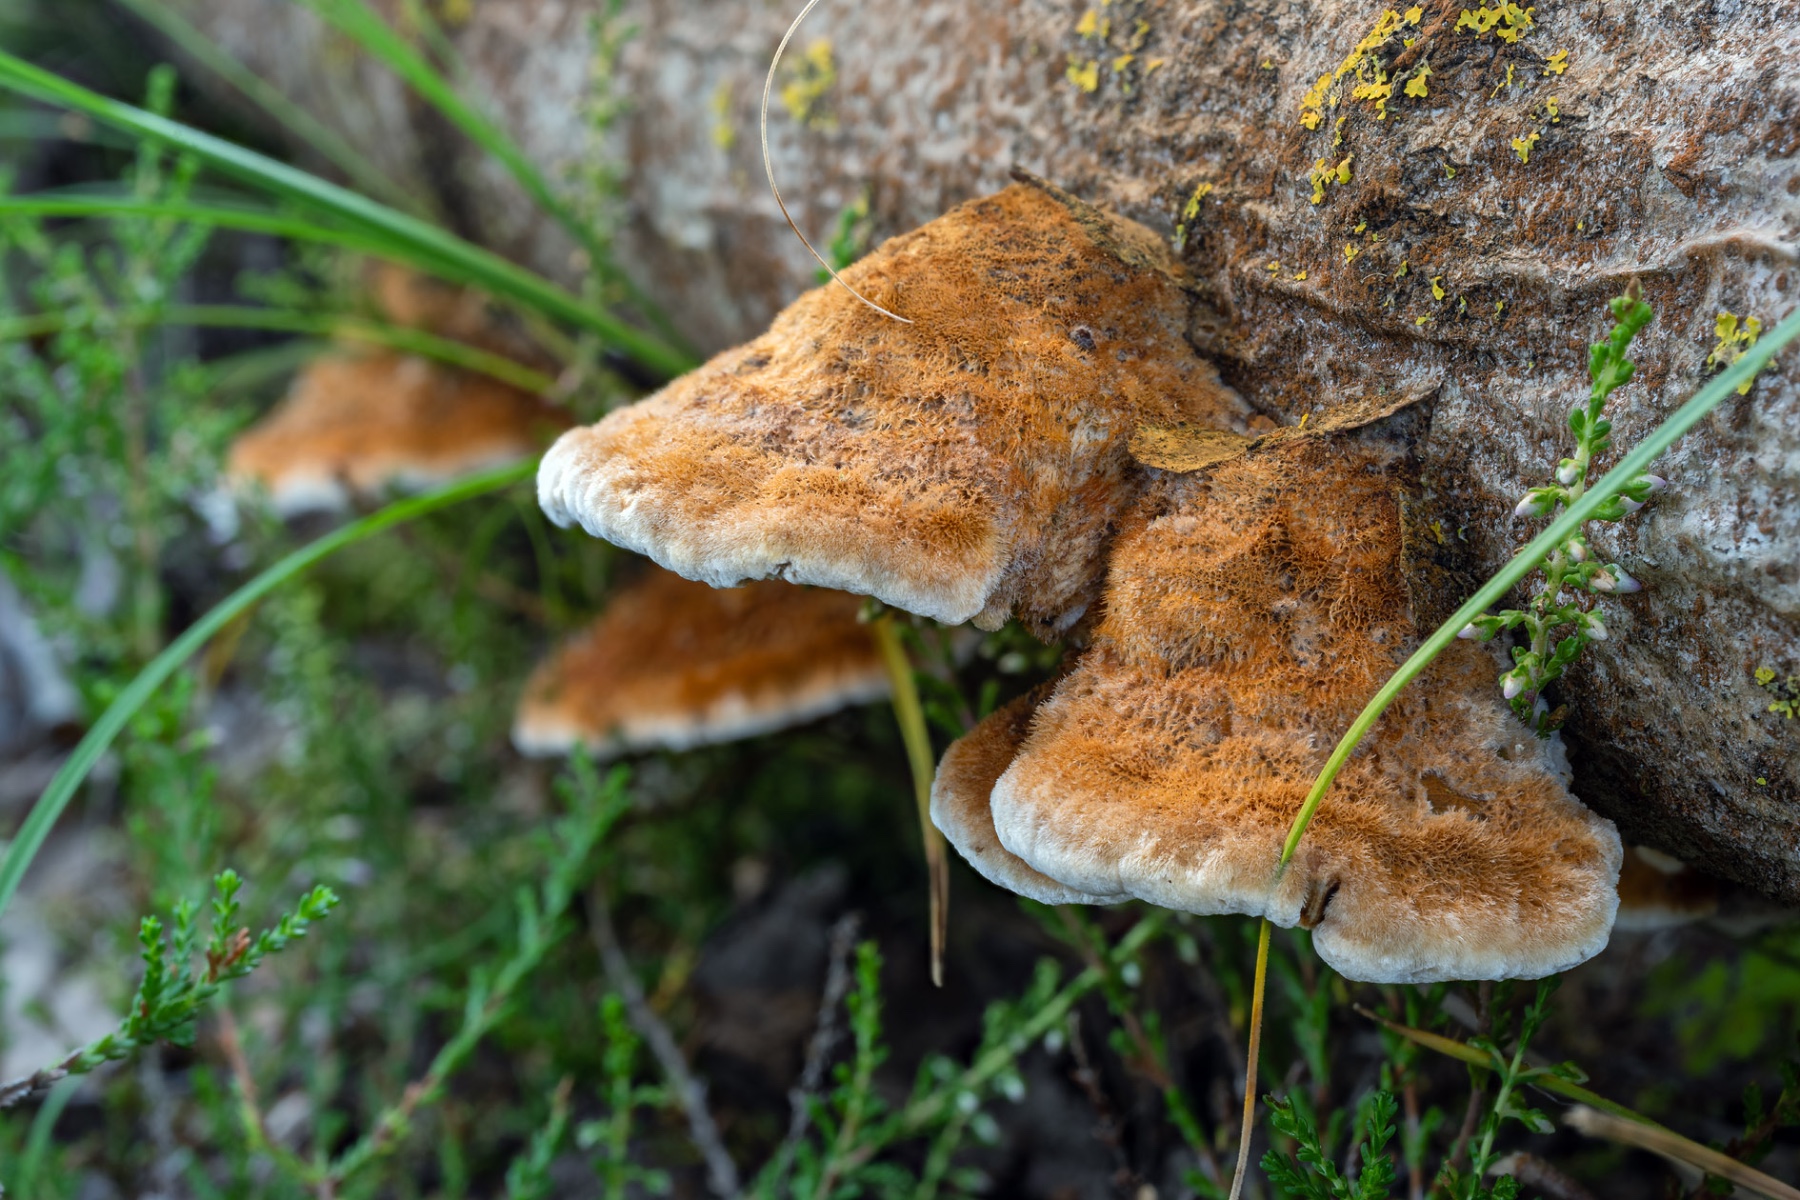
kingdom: Fungi
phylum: Basidiomycota
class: Agaricomycetes
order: Hymenochaetales
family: Hymenochaetaceae
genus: Inocutis
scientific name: Inocutis rheades
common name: ræve-spejlporesvamp
